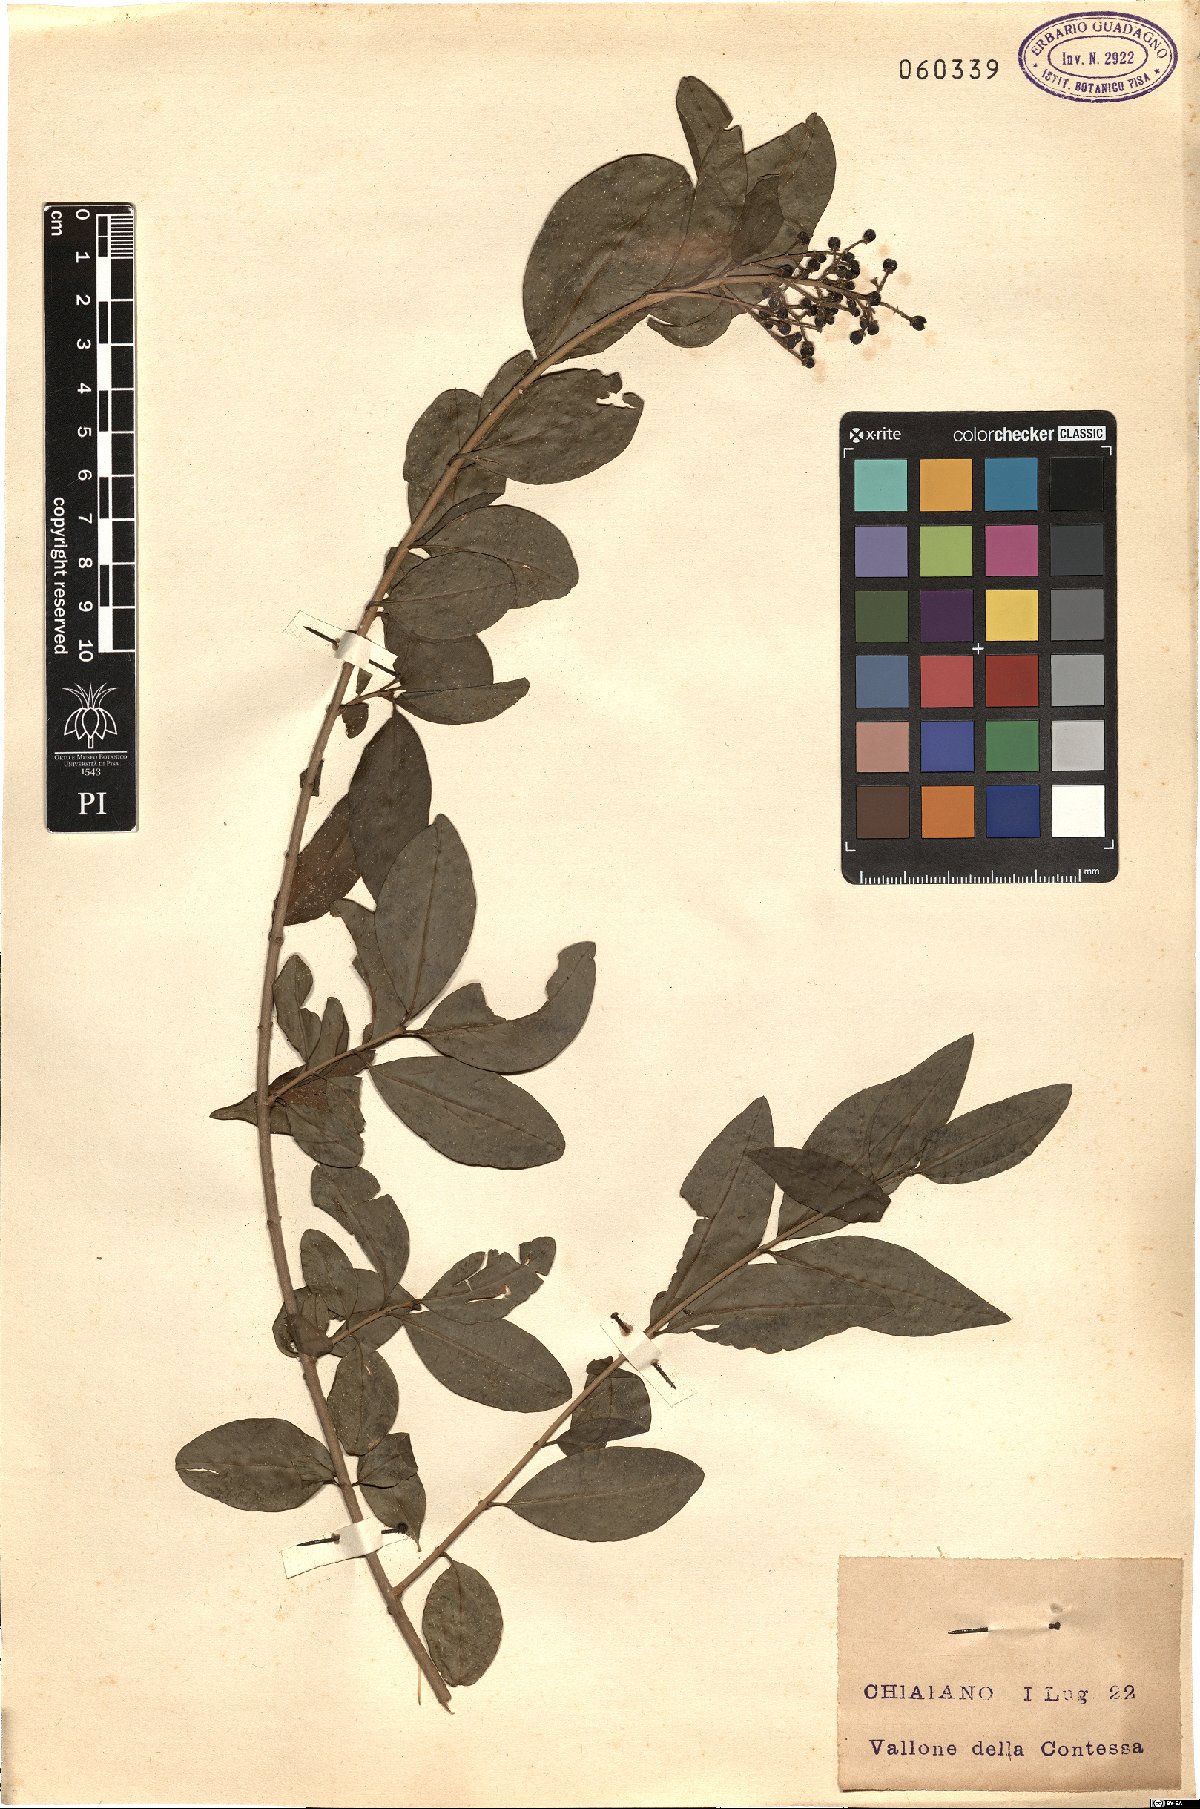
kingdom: Plantae
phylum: Tracheophyta
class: Magnoliopsida
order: Lamiales
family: Oleaceae
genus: Ligustrum
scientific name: Ligustrum vulgare
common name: Wild privet
